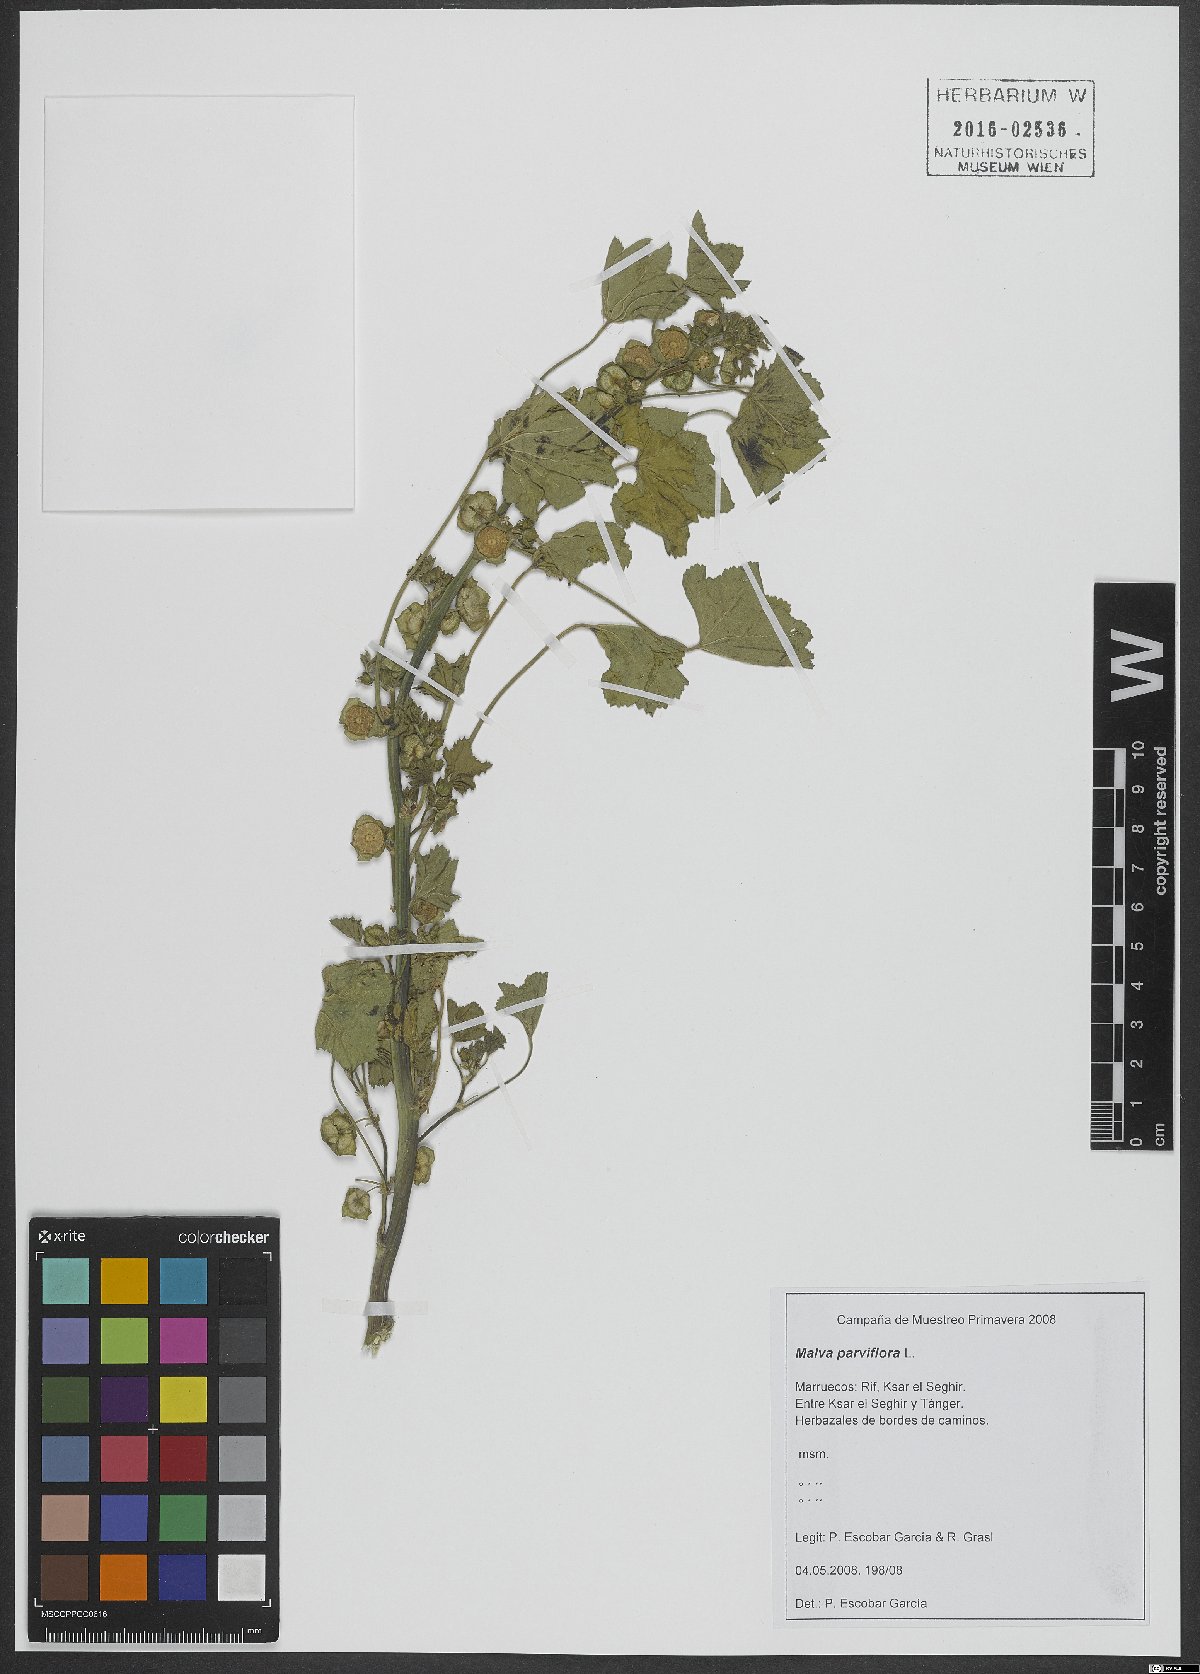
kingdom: Plantae
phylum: Tracheophyta
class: Magnoliopsida
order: Malvales
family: Malvaceae
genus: Malva
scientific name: Malva parviflora
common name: Least mallow
